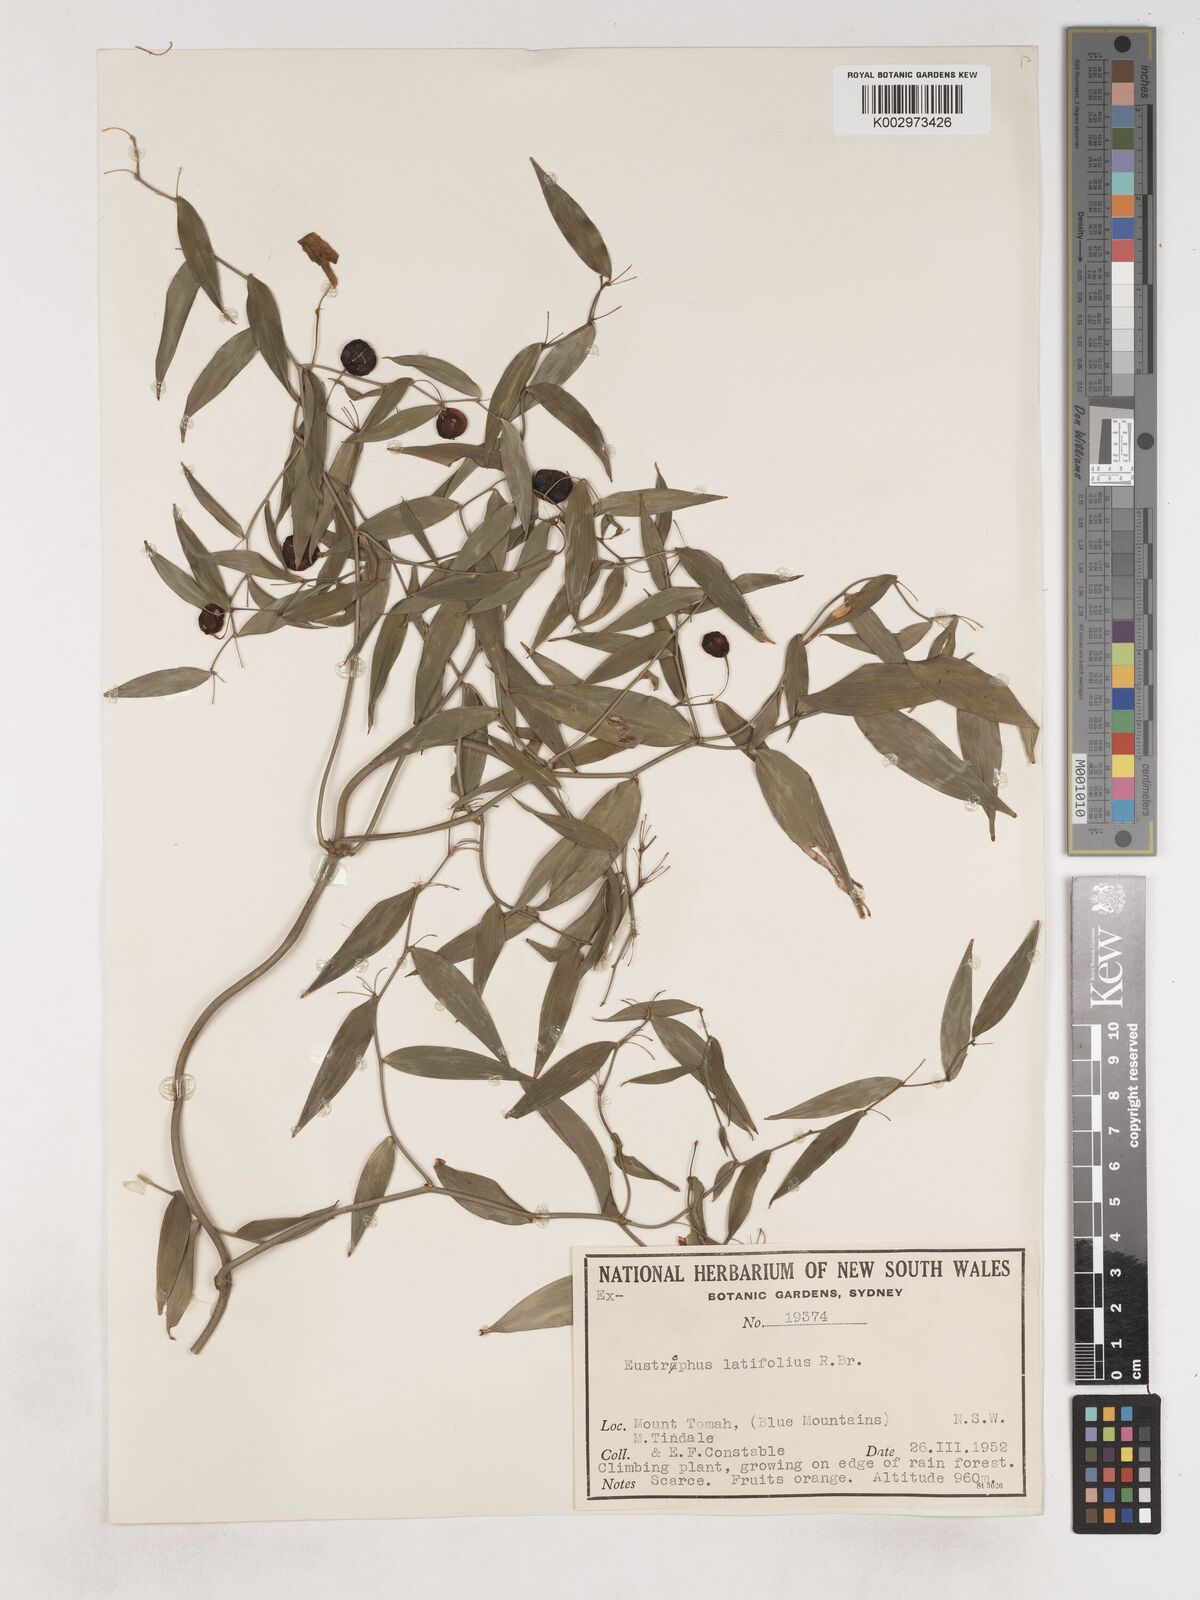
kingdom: Plantae
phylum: Tracheophyta
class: Liliopsida
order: Asparagales
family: Asparagaceae
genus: Eustrephus
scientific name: Eustrephus latifolius
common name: Orangevine
